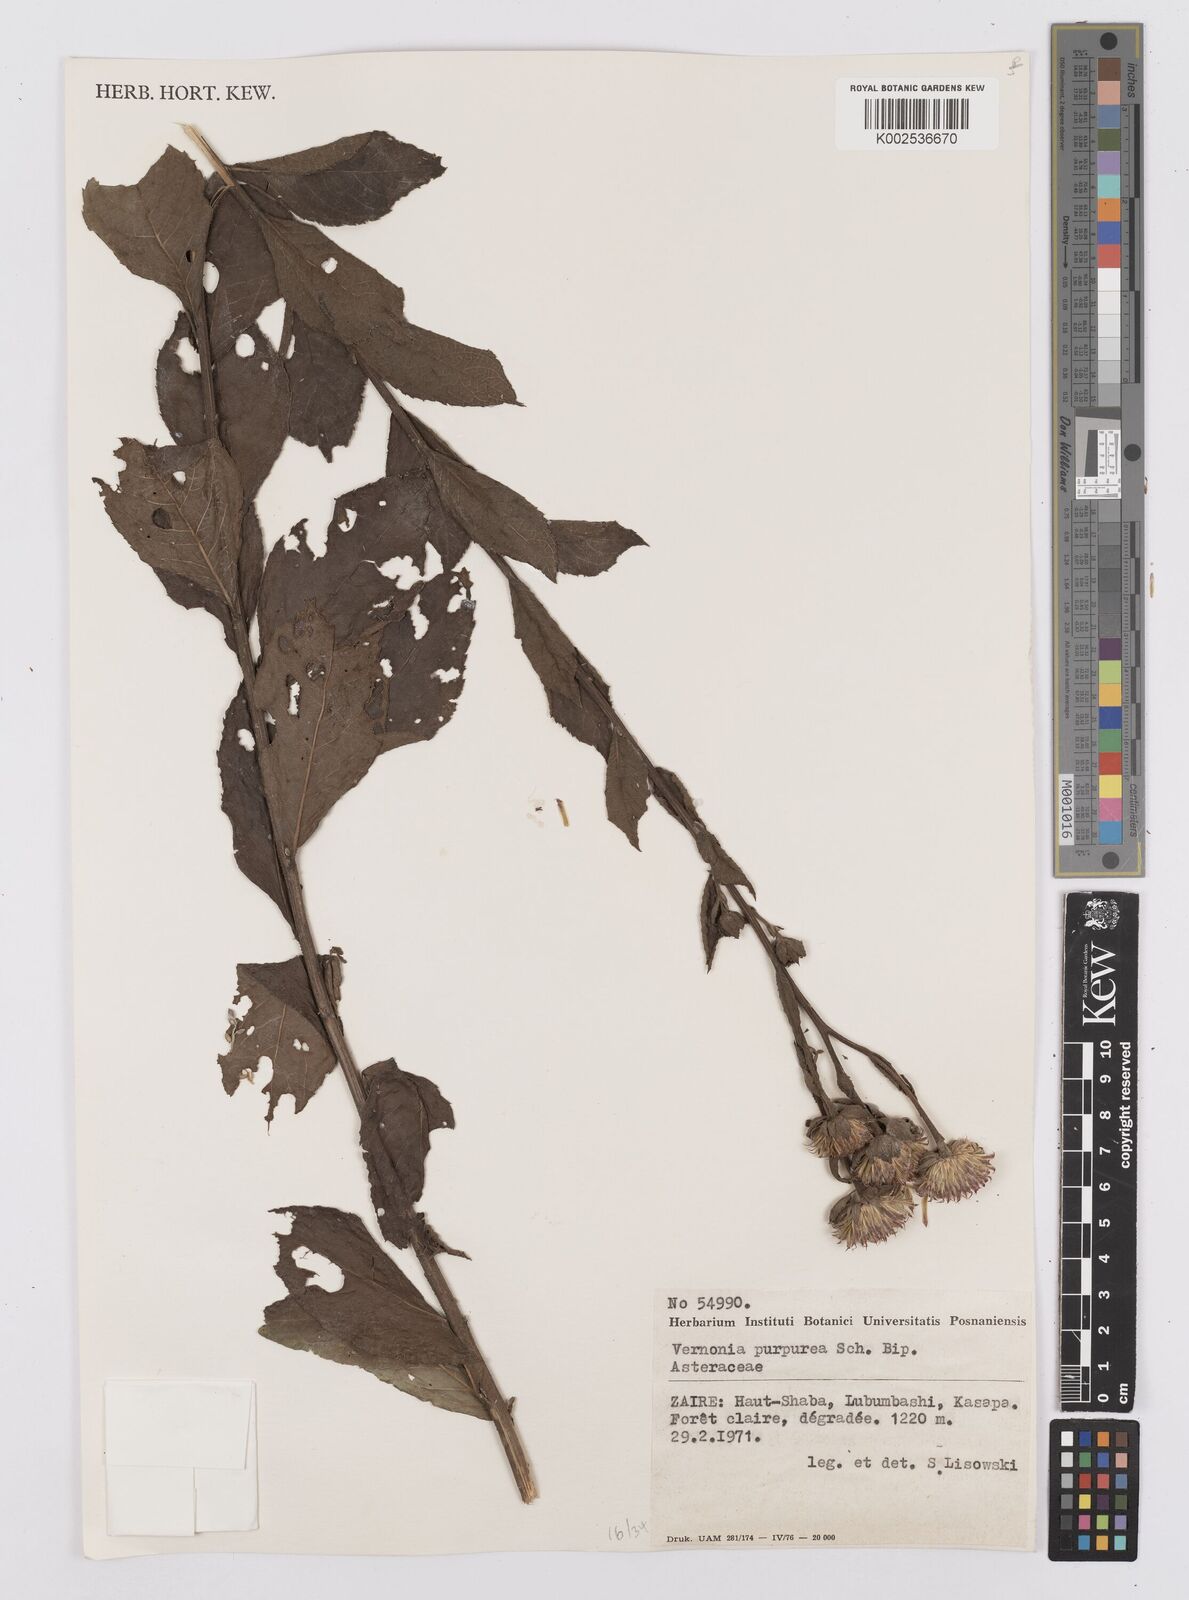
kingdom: Plantae
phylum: Tracheophyta
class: Magnoliopsida
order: Asterales
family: Asteraceae
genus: Nothovernonia
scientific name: Nothovernonia purpurea
